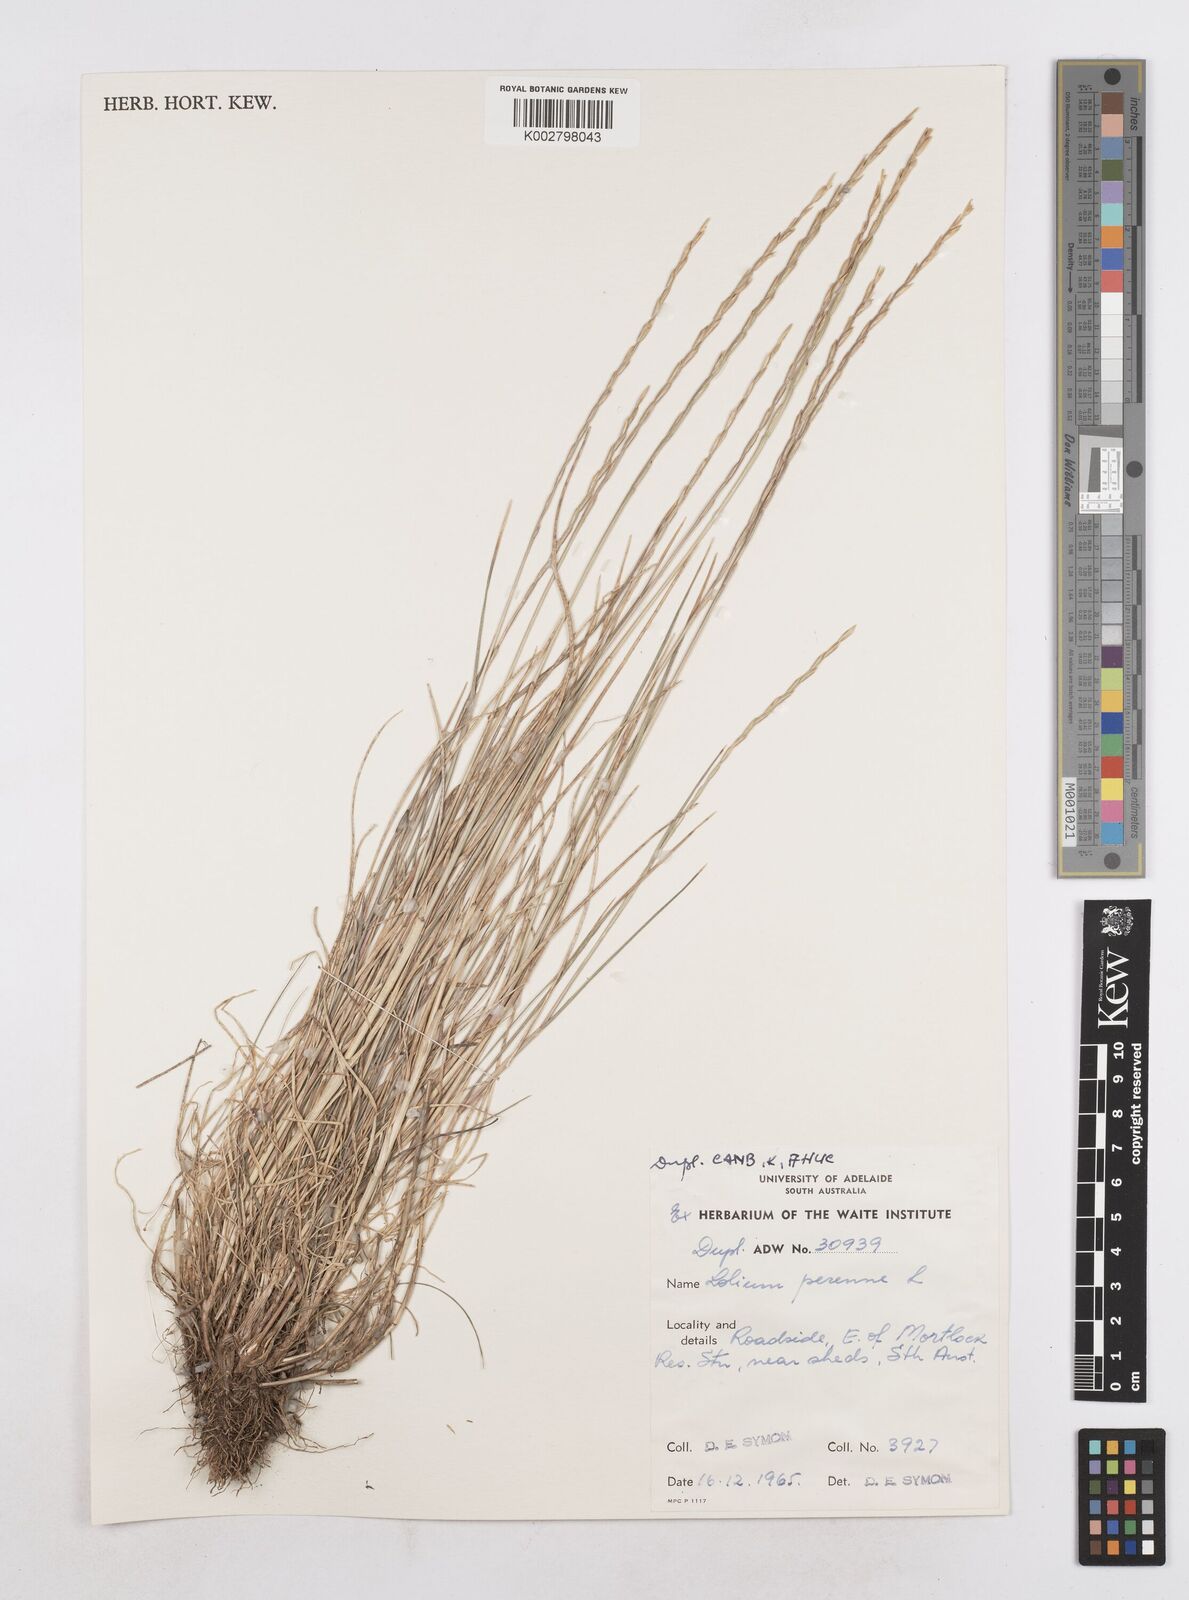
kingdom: Plantae
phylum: Tracheophyta
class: Liliopsida
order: Poales
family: Poaceae
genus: Lolium
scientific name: Lolium
